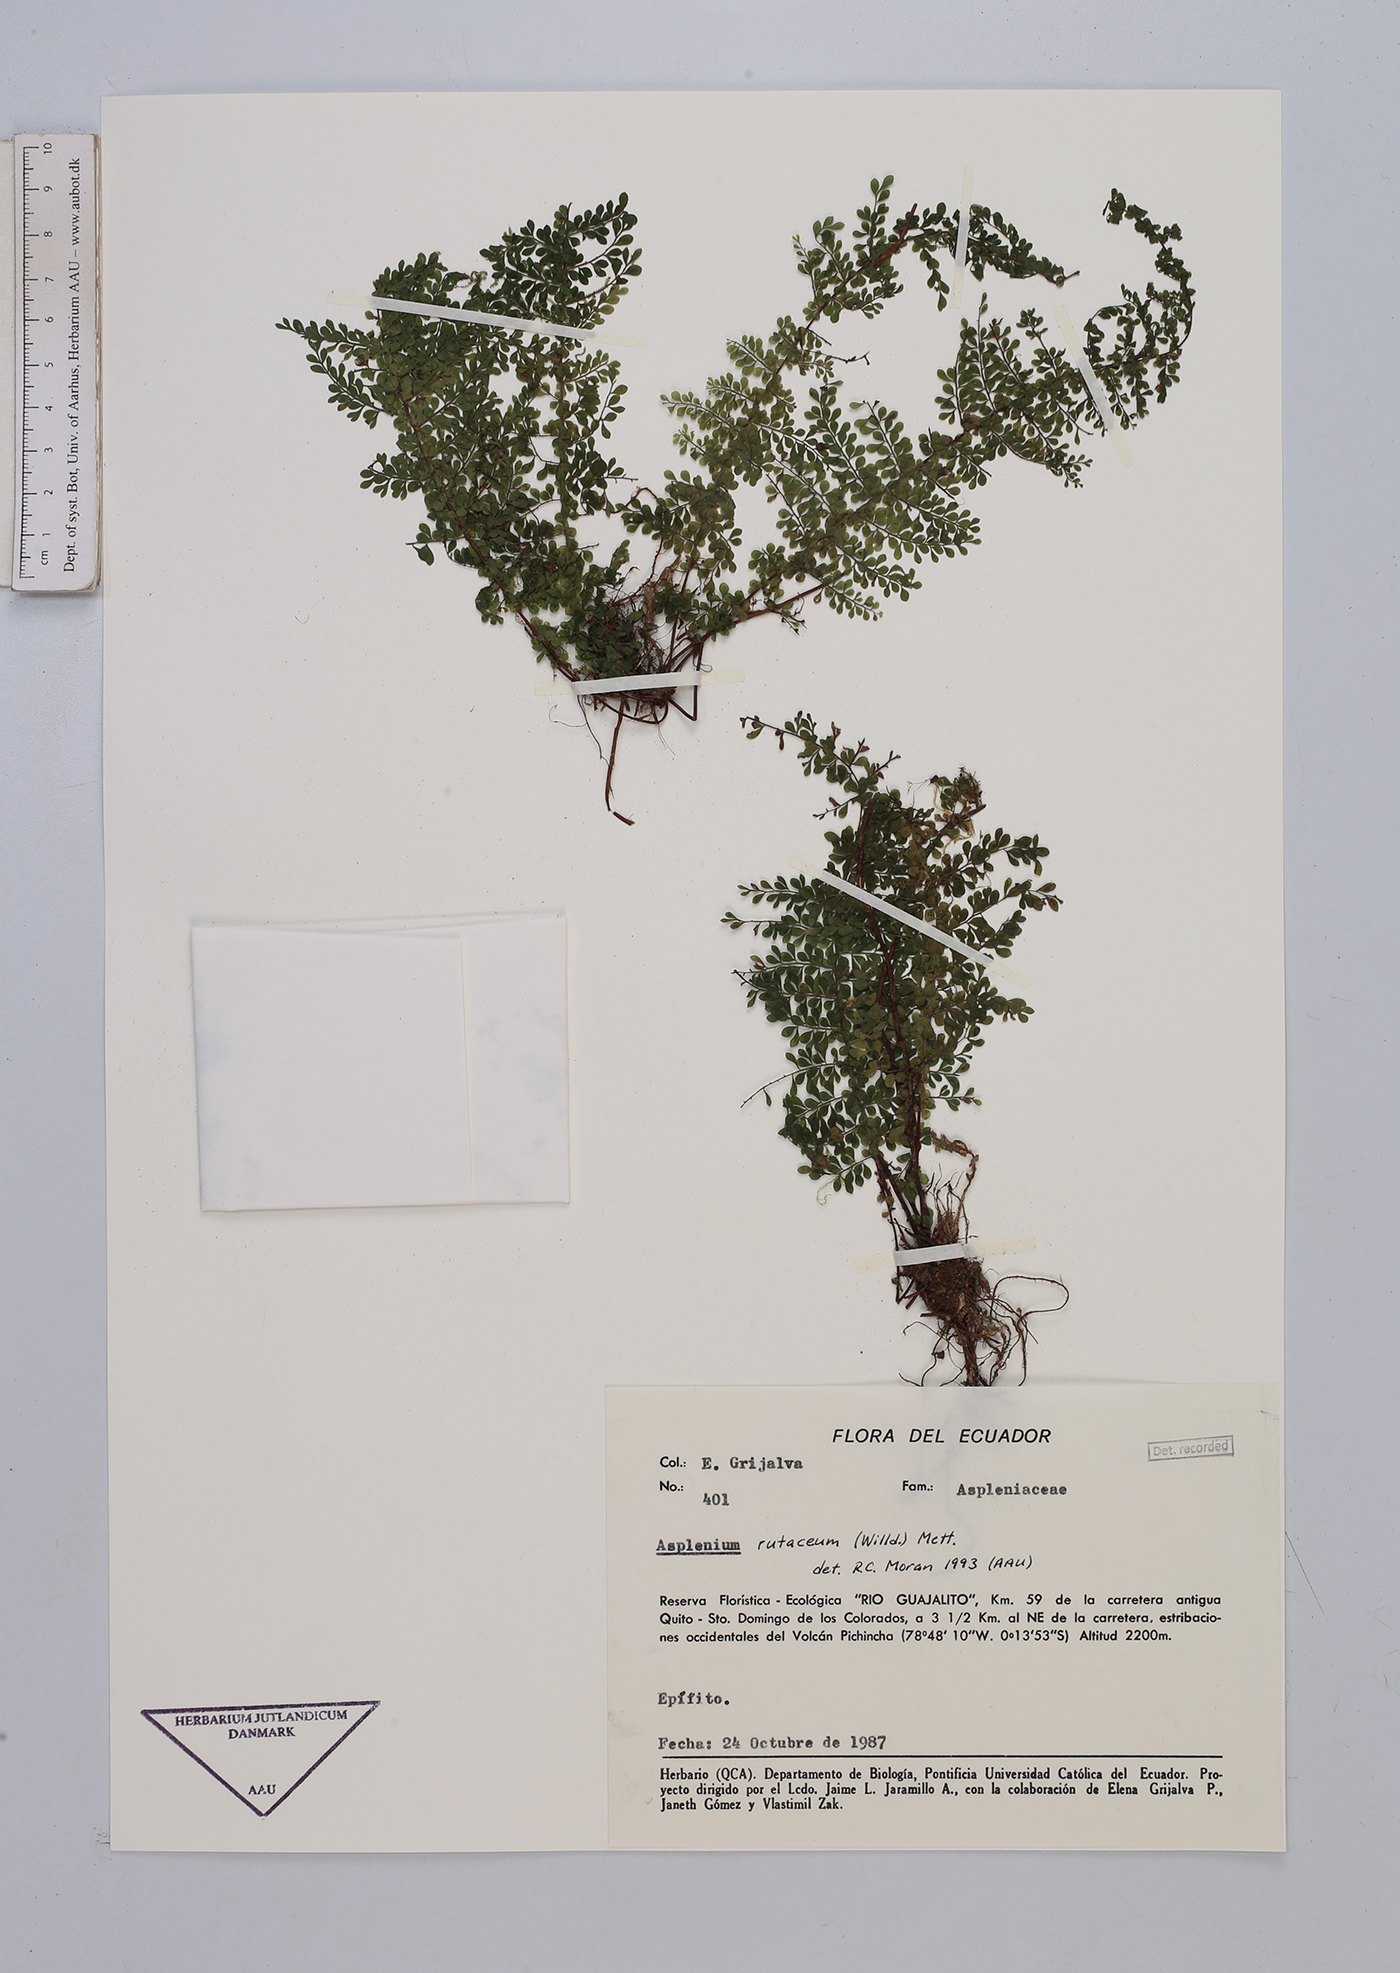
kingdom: Plantae
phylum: Tracheophyta
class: Polypodiopsida
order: Polypodiales
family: Aspleniaceae
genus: Asplenium
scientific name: Asplenium rutaceum
